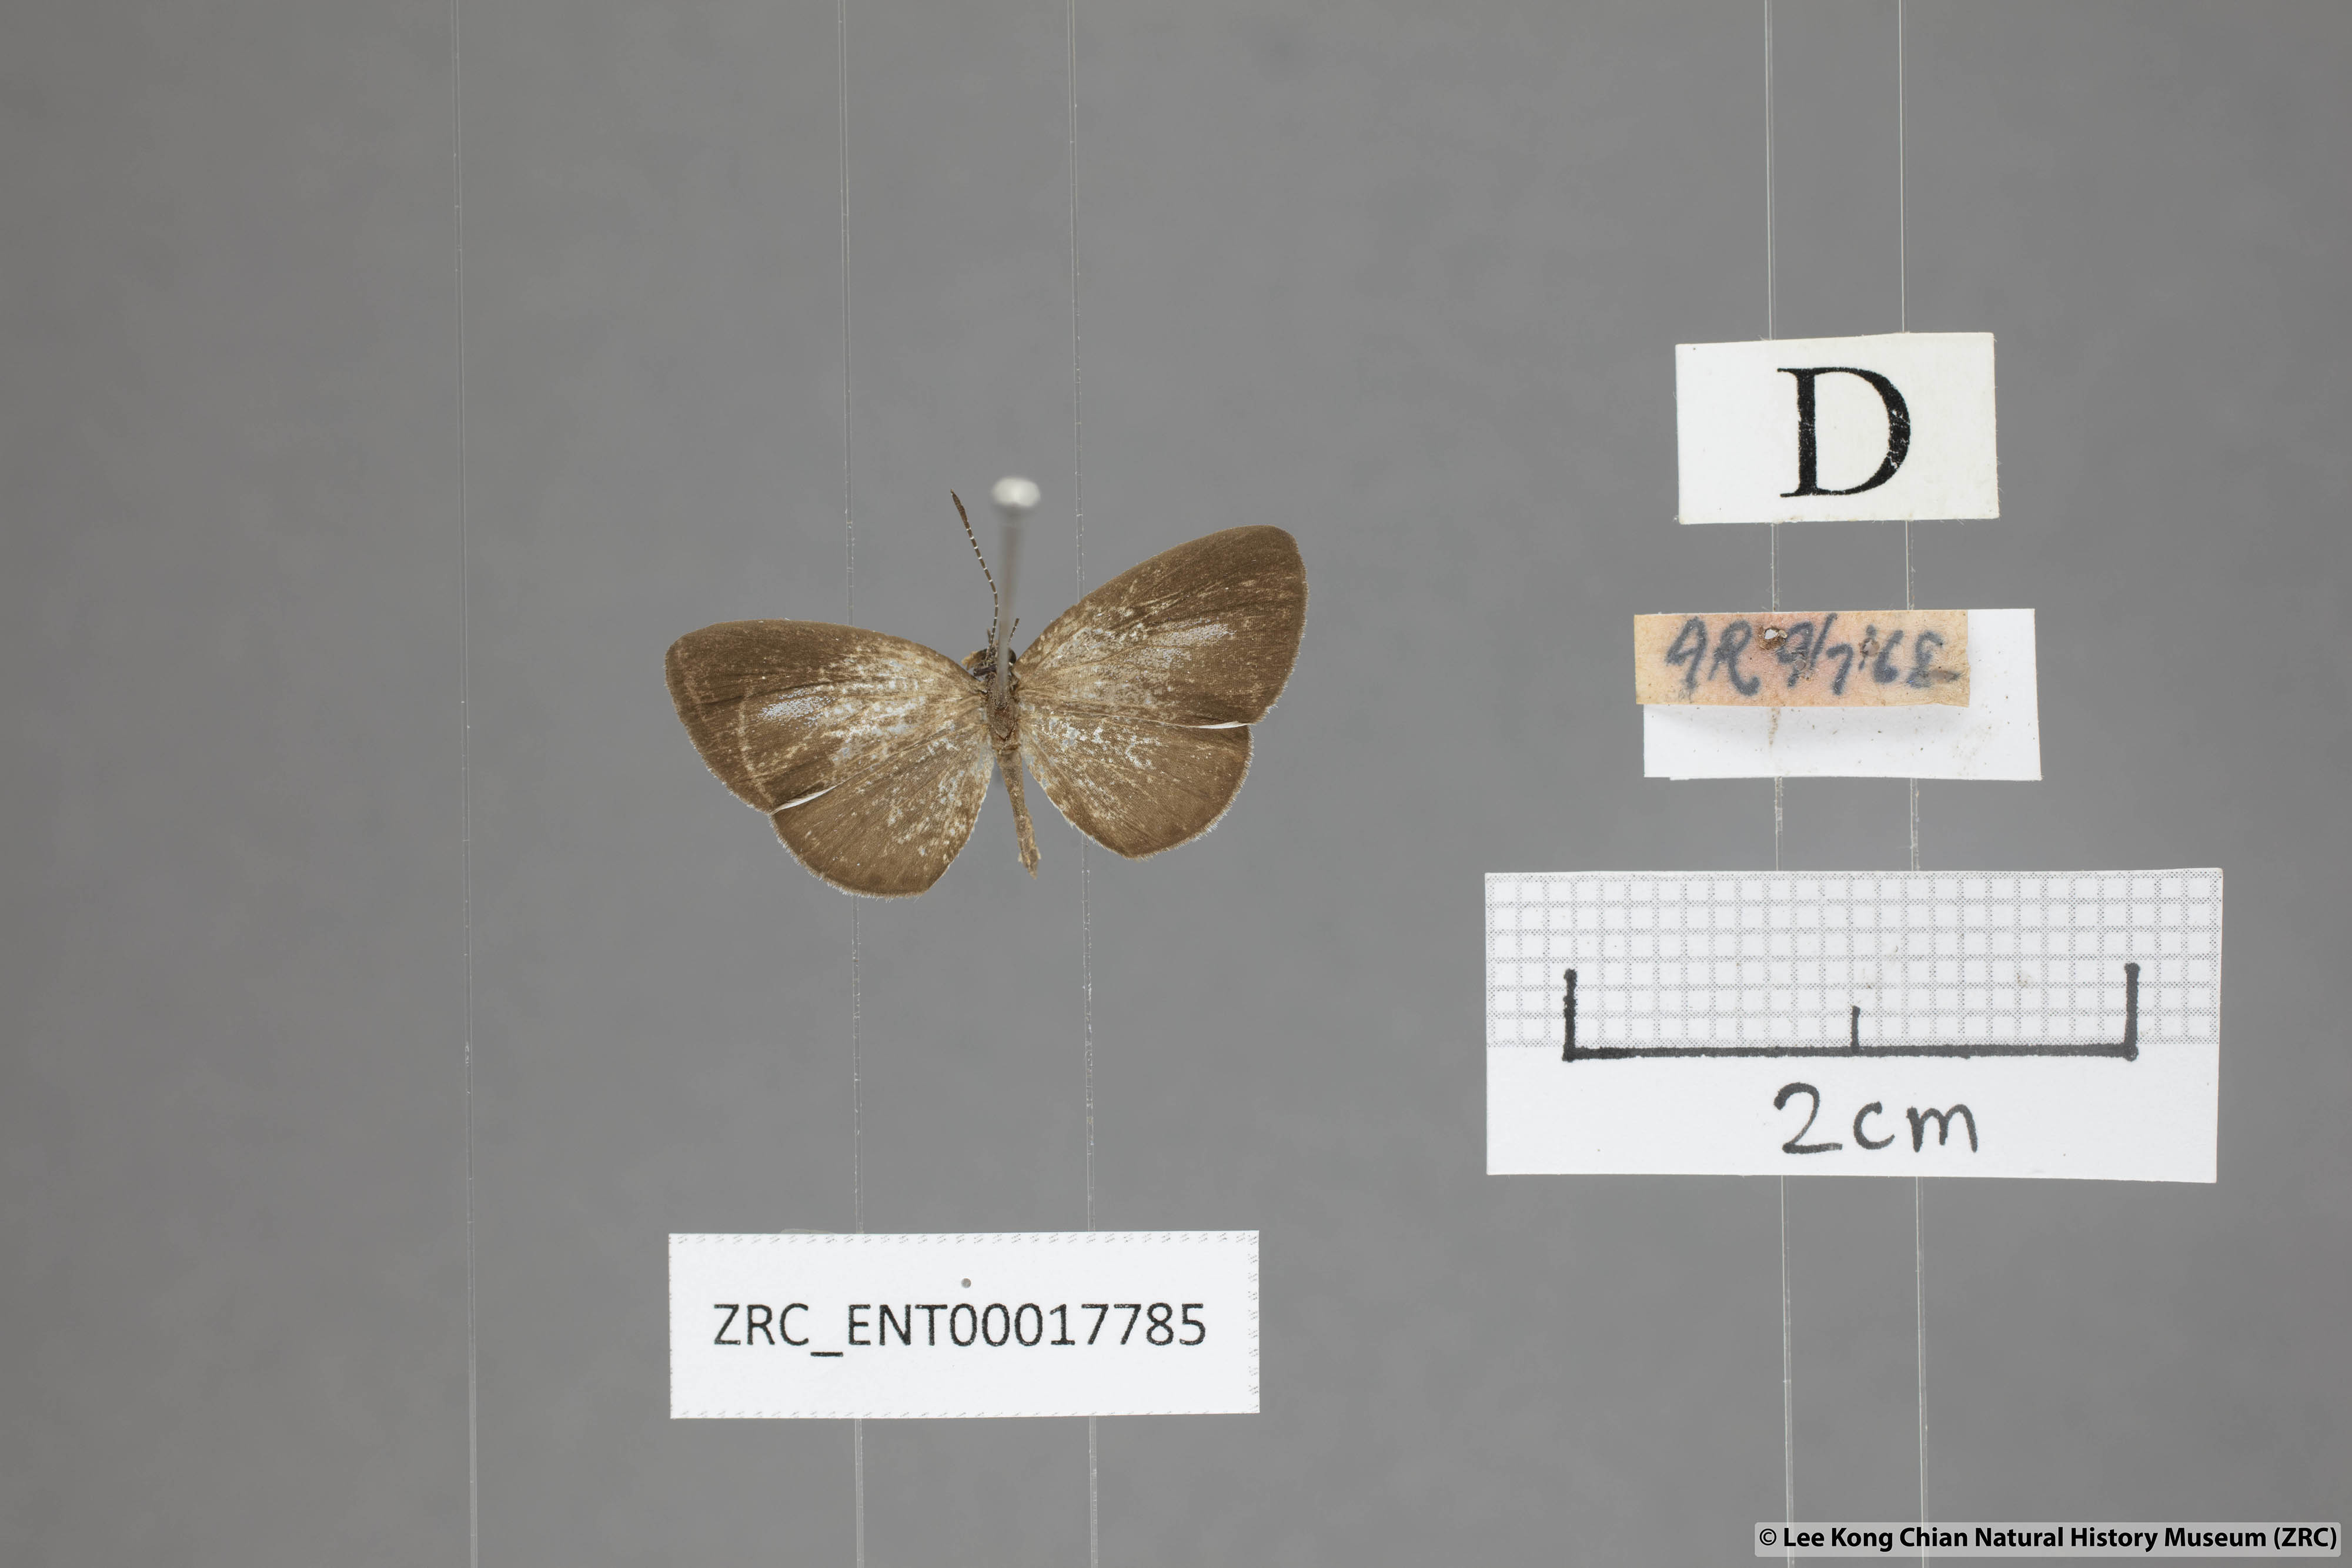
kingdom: Animalia
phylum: Arthropoda
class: Insecta
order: Lepidoptera
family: Lycaenidae
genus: Callenya
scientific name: Callenya lenya
